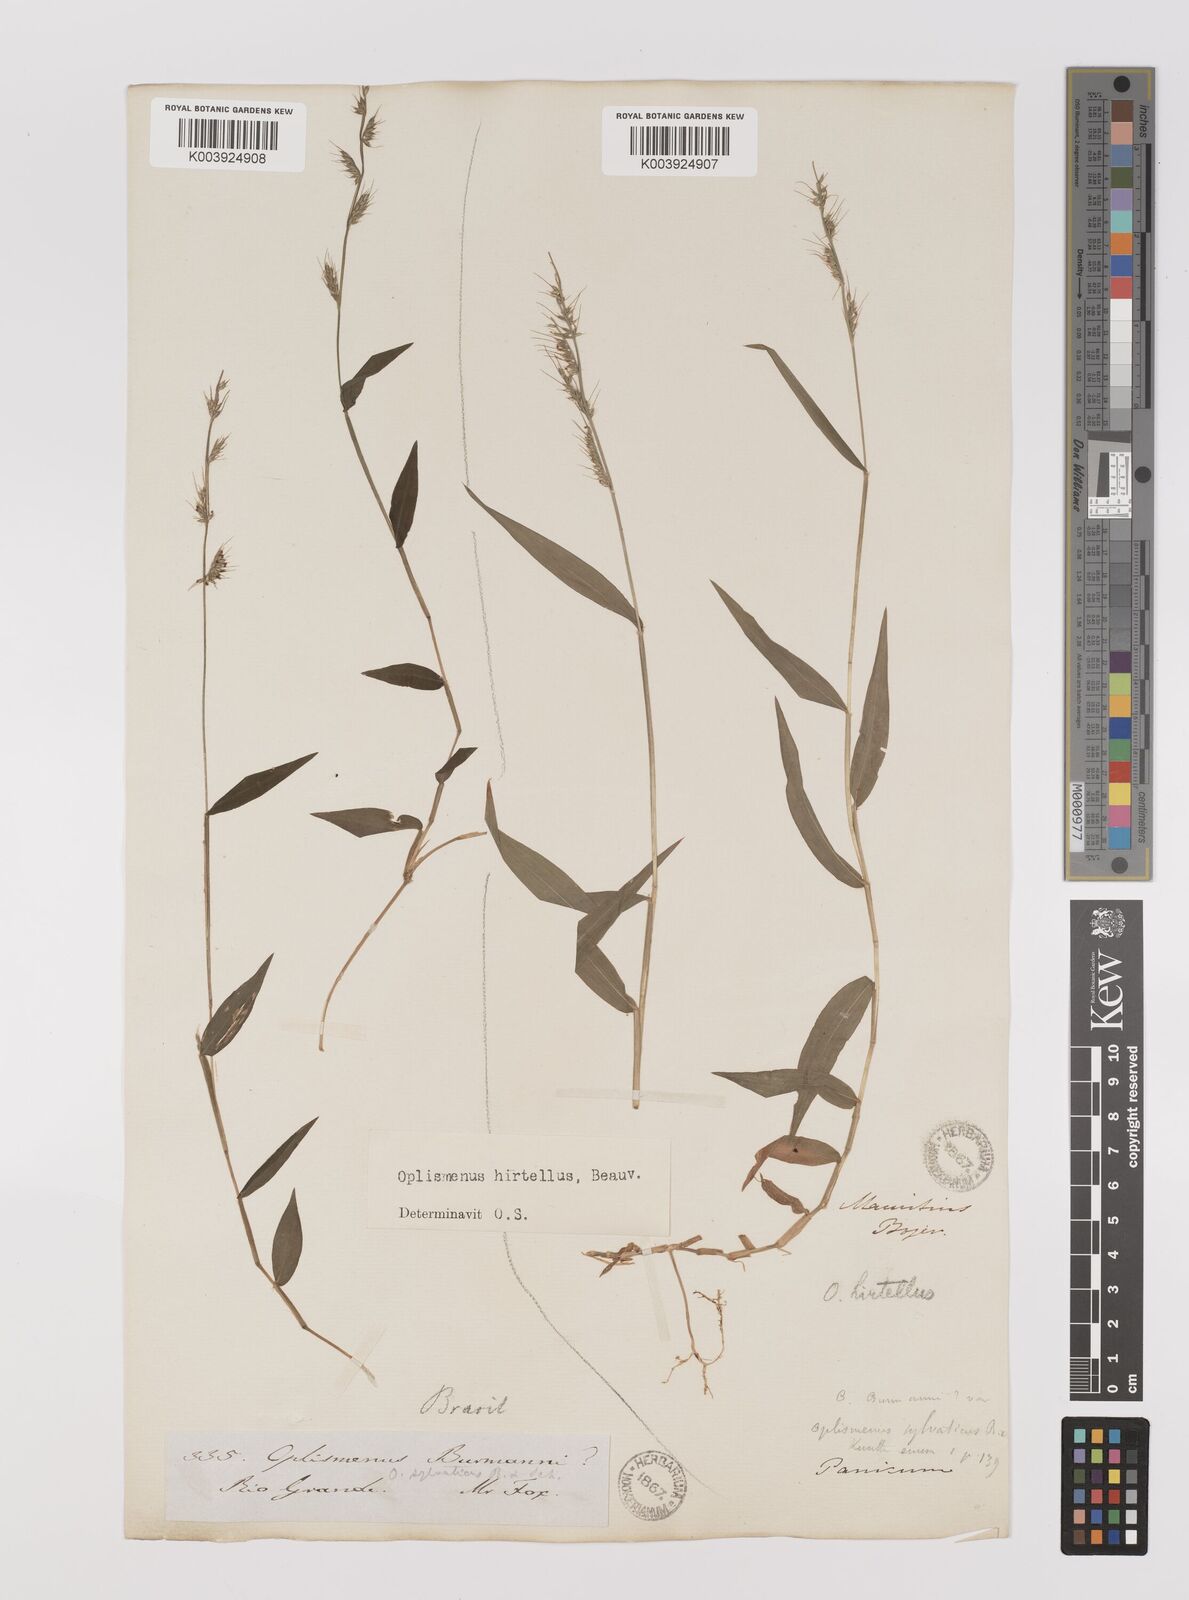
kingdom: Plantae
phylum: Tracheophyta
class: Liliopsida
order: Poales
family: Poaceae
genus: Oplismenus
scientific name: Oplismenus hirtellus
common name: Basketgrass
